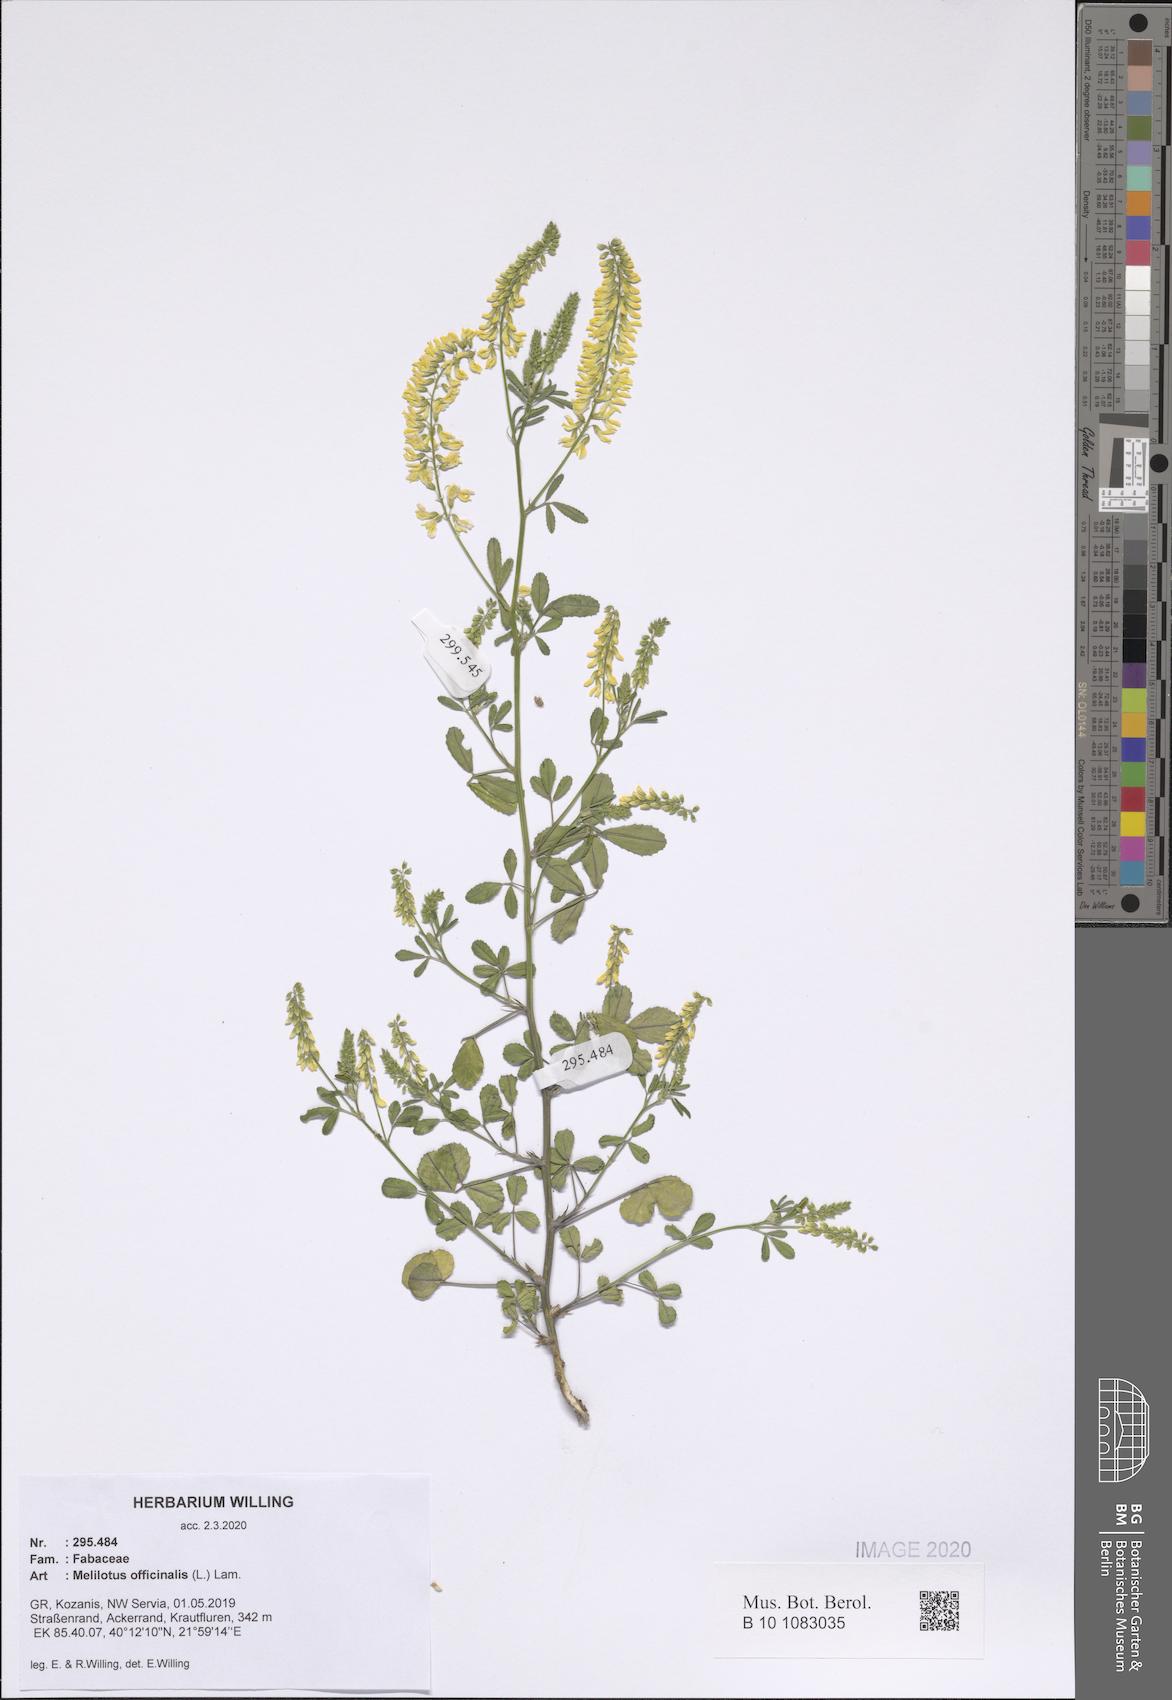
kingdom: Plantae
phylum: Tracheophyta
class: Magnoliopsida
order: Fabales
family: Fabaceae
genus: Melilotus
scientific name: Melilotus officinalis
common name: Sweetclover
